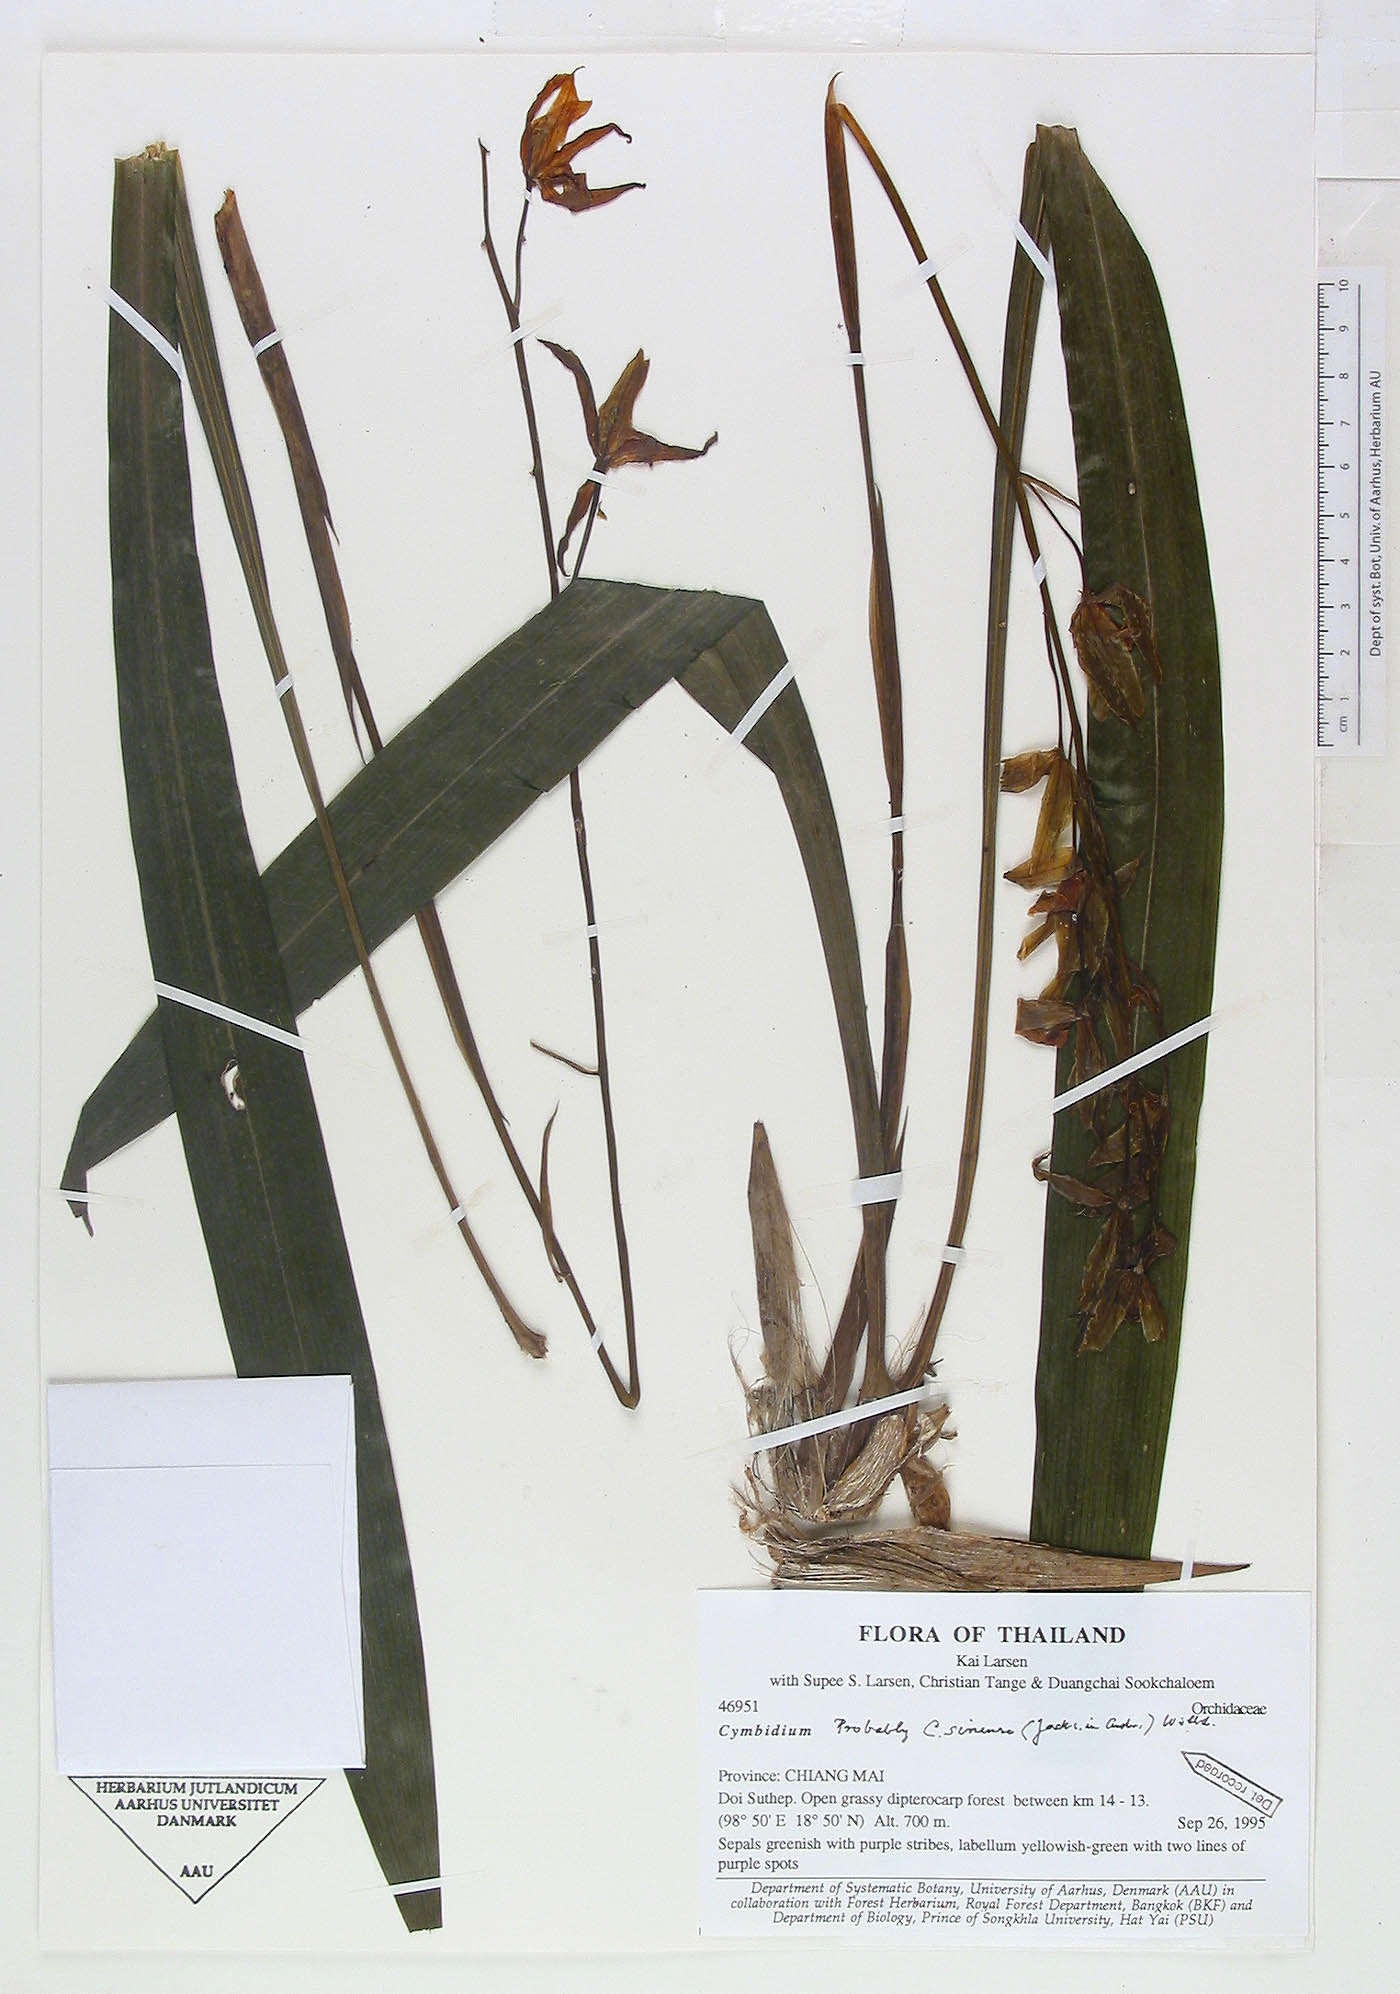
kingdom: Plantae
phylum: Tracheophyta
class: Liliopsida
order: Asparagales
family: Orchidaceae
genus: Cymbidium
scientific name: Cymbidium sinense
